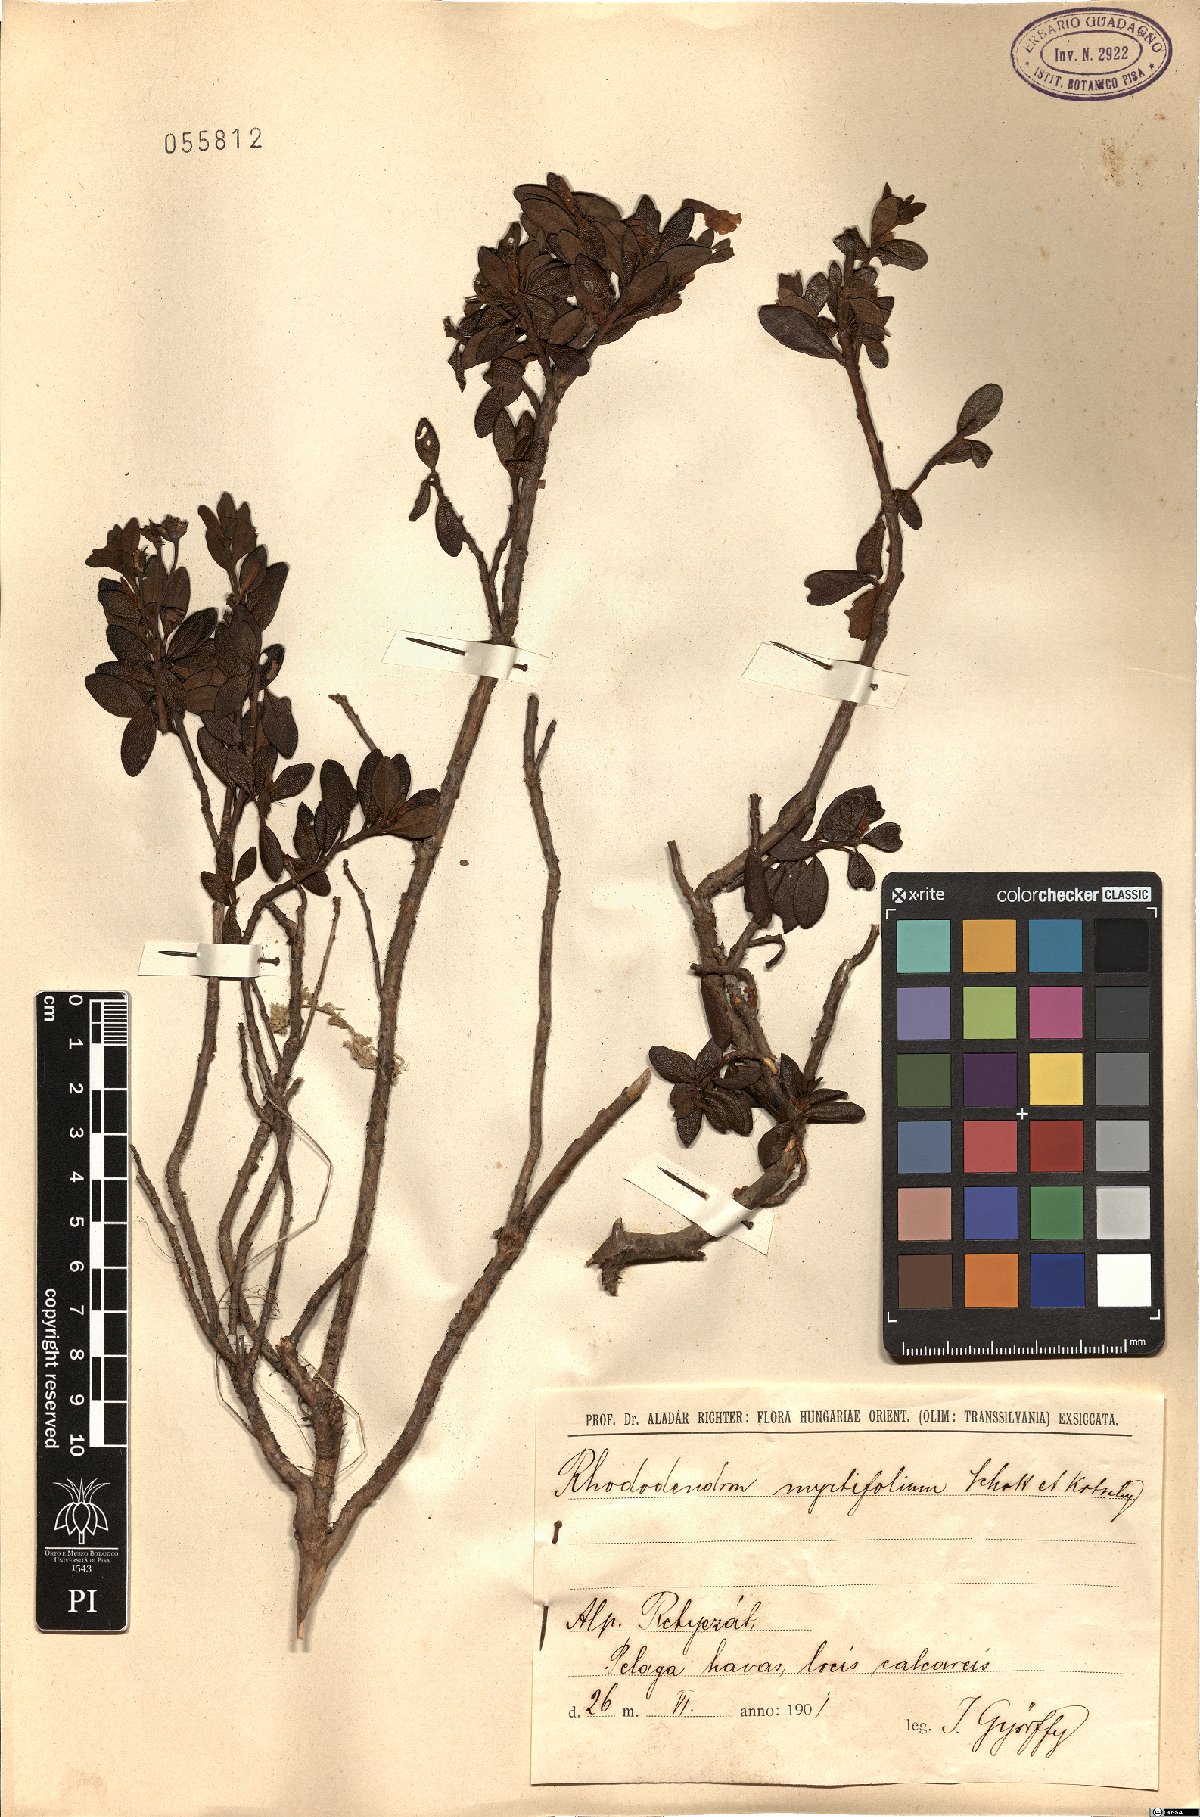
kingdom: Plantae
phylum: Tracheophyta
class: Magnoliopsida
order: Ericales
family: Ericaceae
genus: Rhododendron
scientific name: Rhododendron ponticum
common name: Rhododendron
